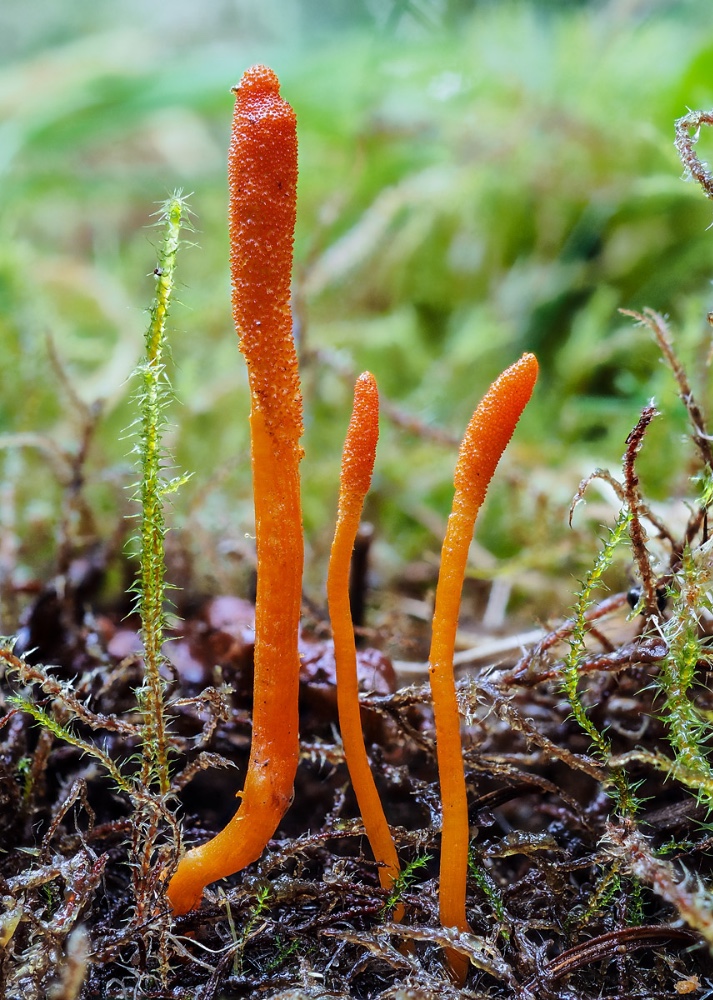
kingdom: Fungi
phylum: Ascomycota
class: Sordariomycetes
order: Hypocreales
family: Cordycipitaceae
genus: Cordyceps
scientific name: Cordyceps militaris
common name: puppe-snyltekølle
